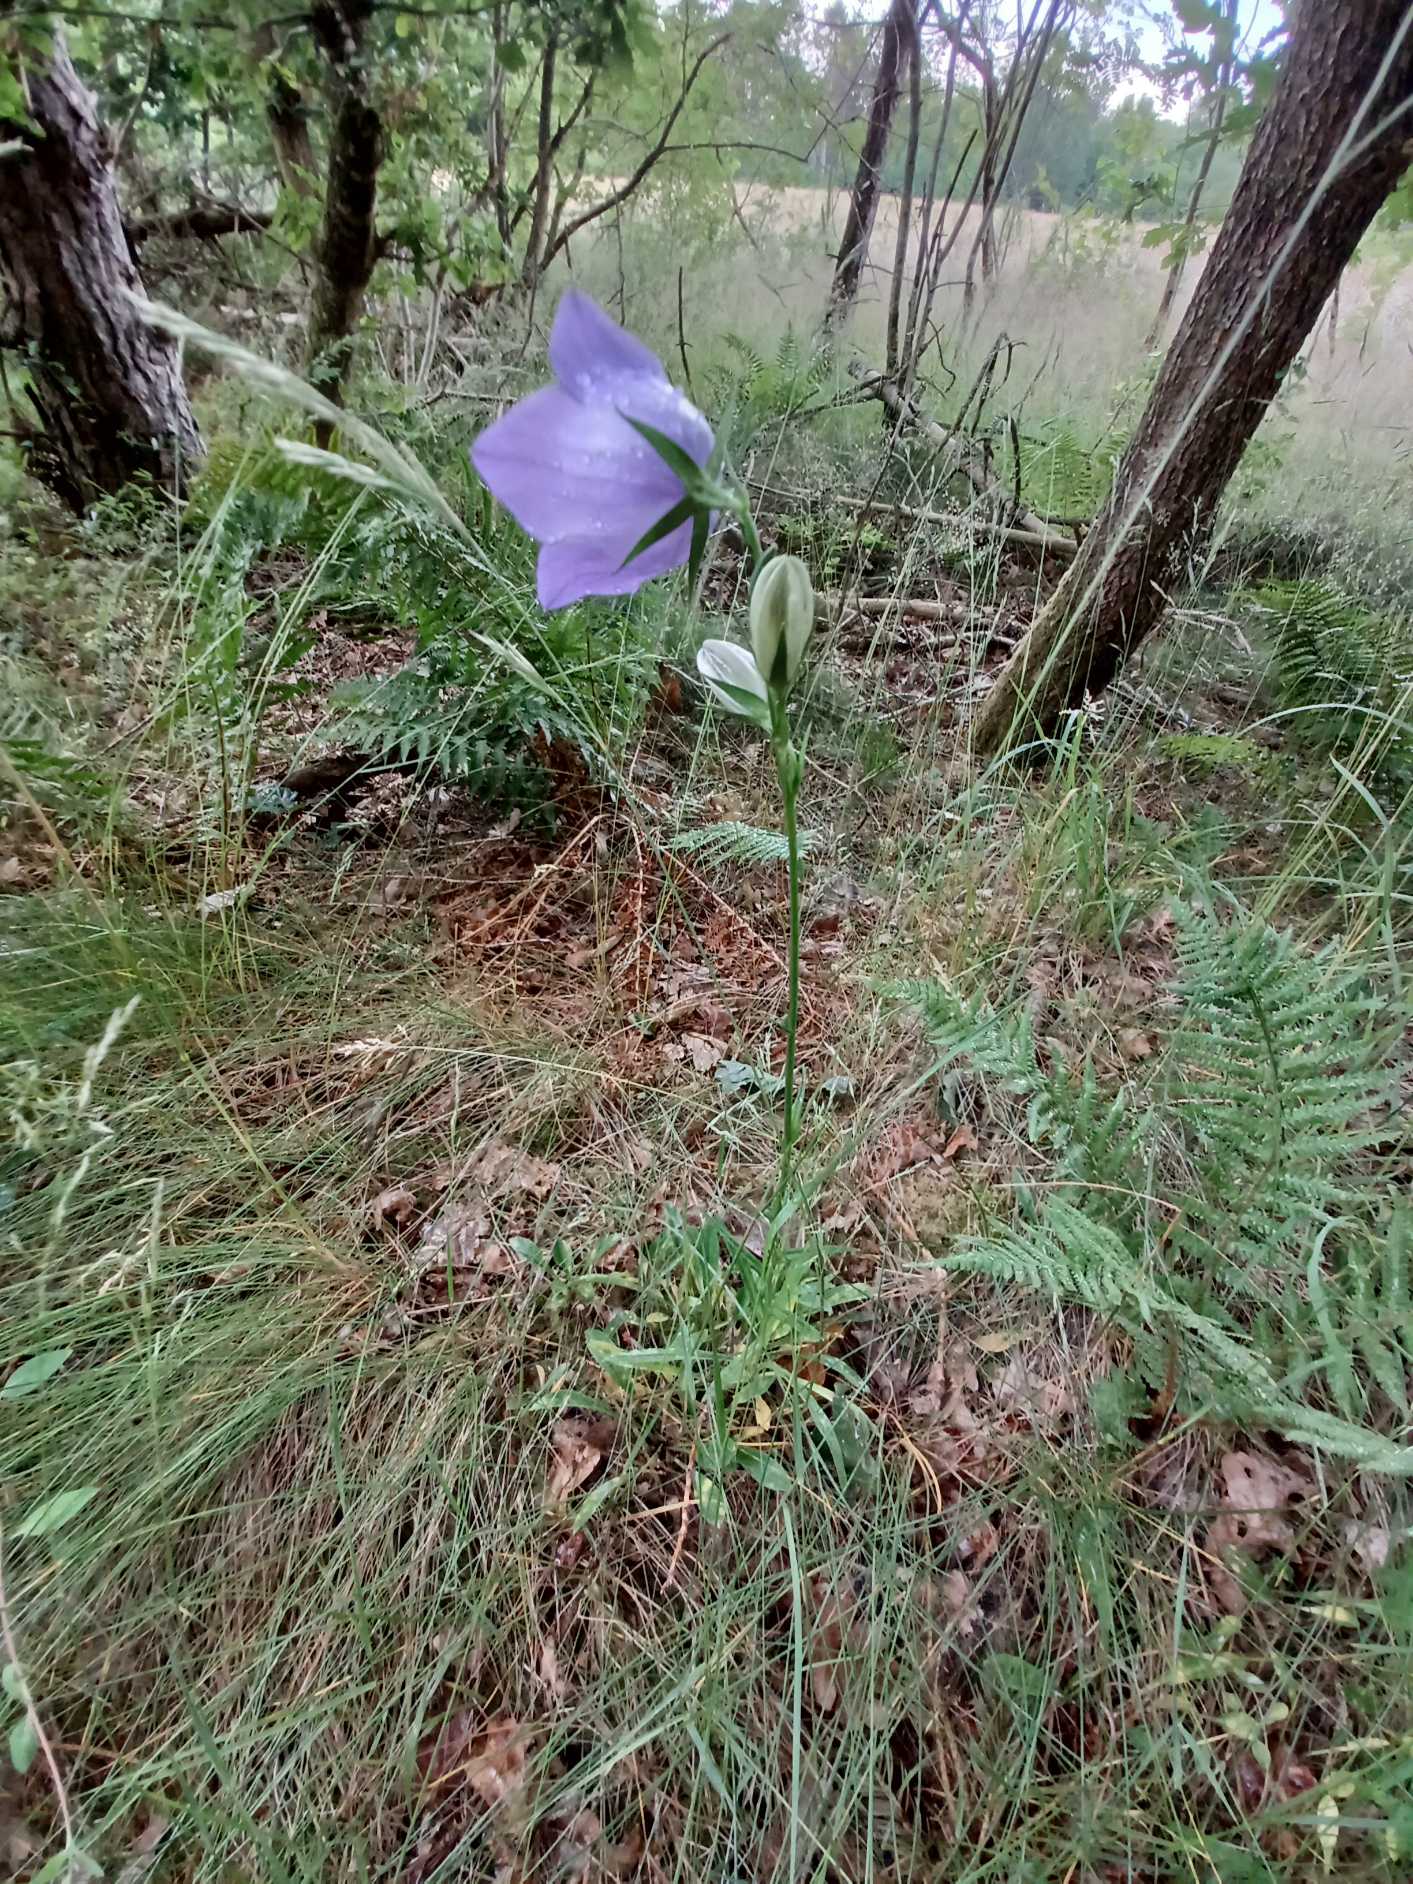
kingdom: Plantae
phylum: Tracheophyta
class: Magnoliopsida
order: Asterales
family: Campanulaceae
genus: Campanula
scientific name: Campanula persicifolia
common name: Smalbladet klokke
